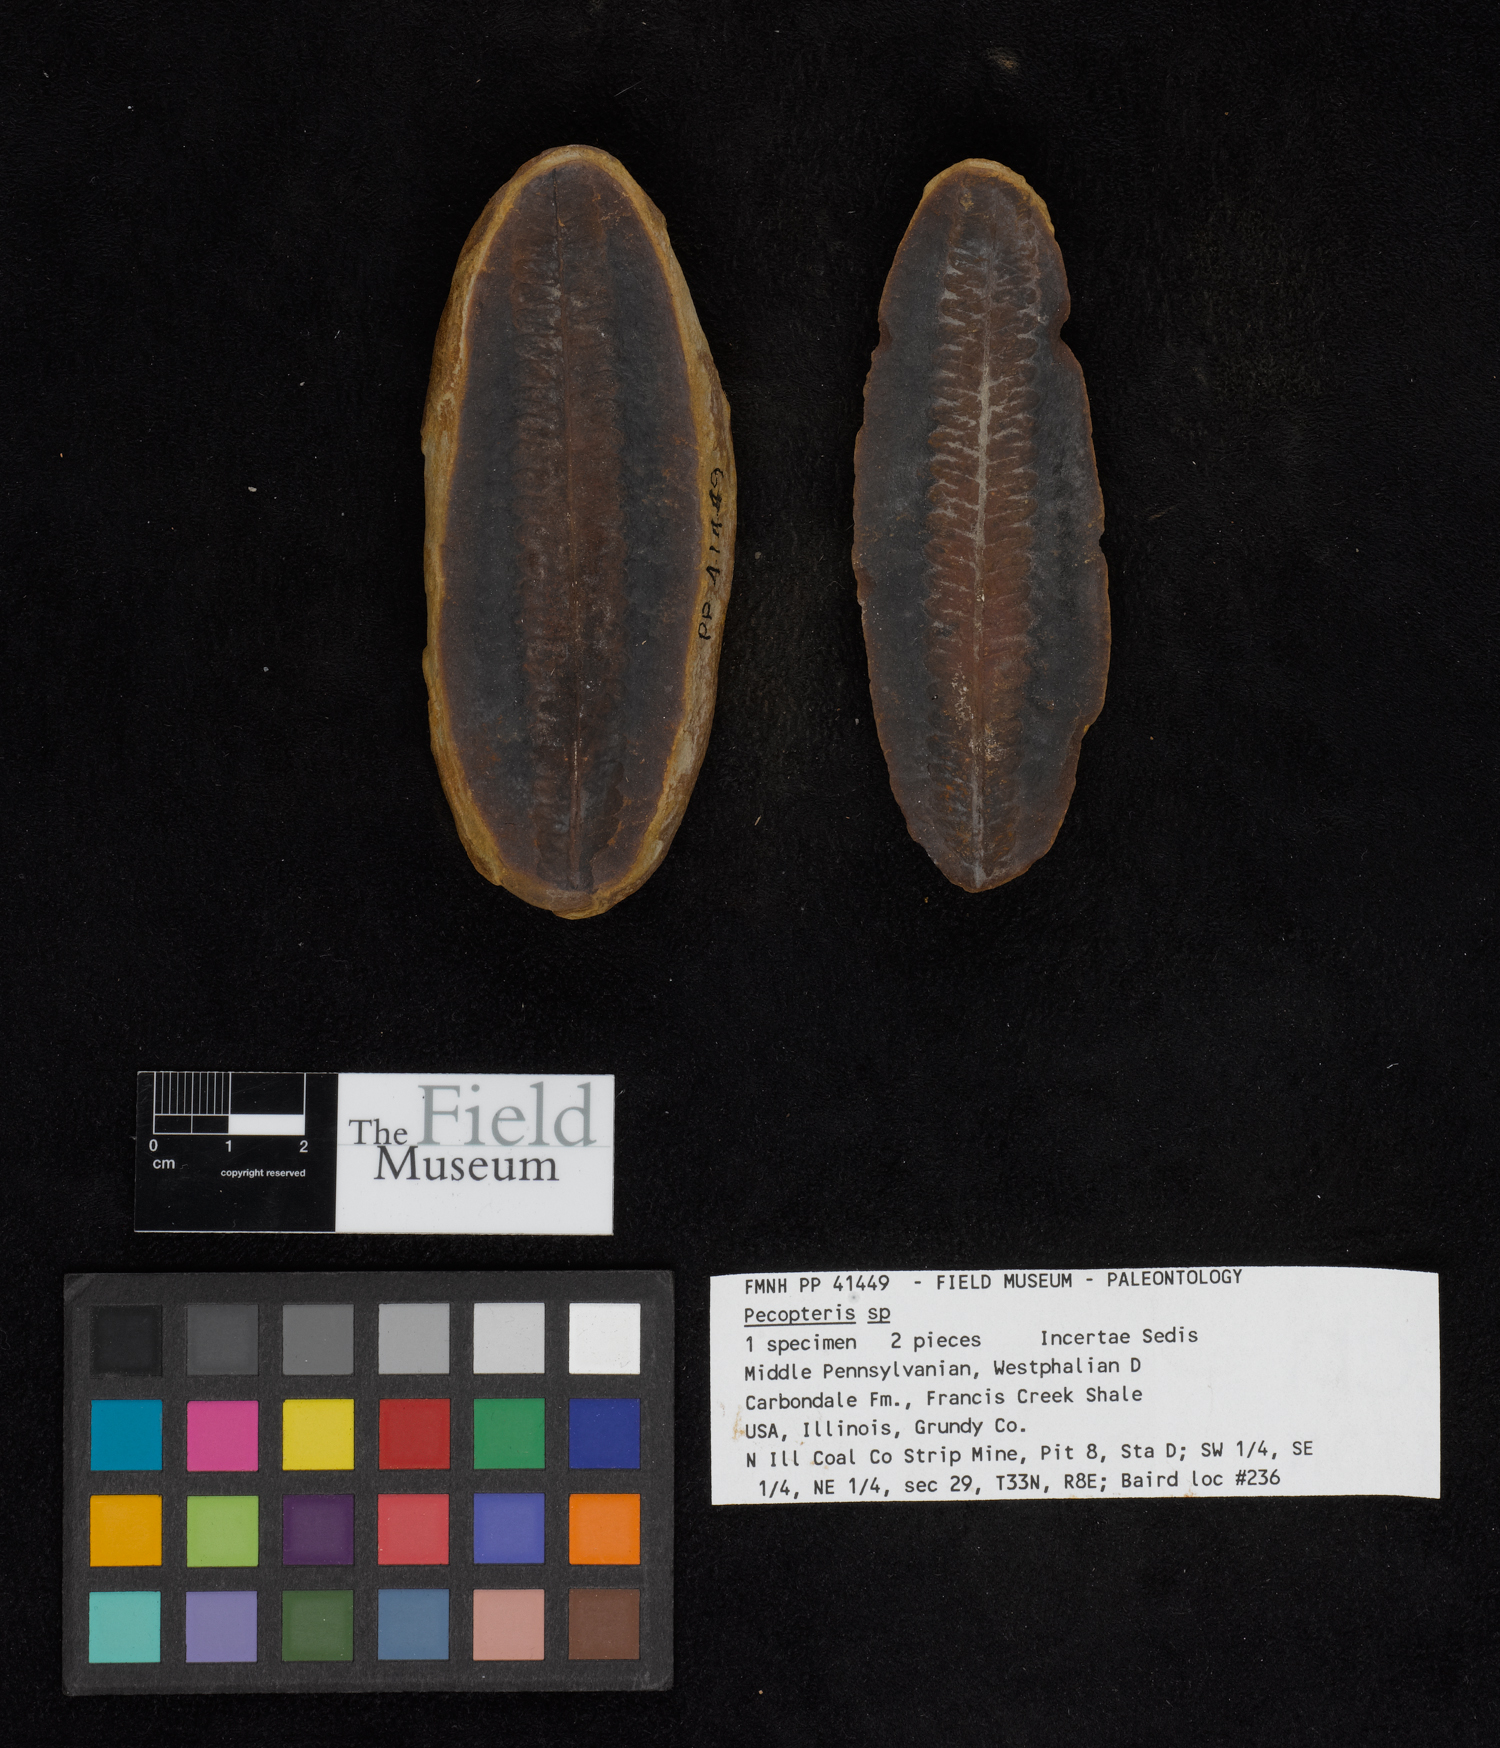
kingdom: Plantae
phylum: Tracheophyta
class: Polypodiopsida
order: Marattiales
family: Asterothecaceae
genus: Pecopteris
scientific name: Pecopteris
